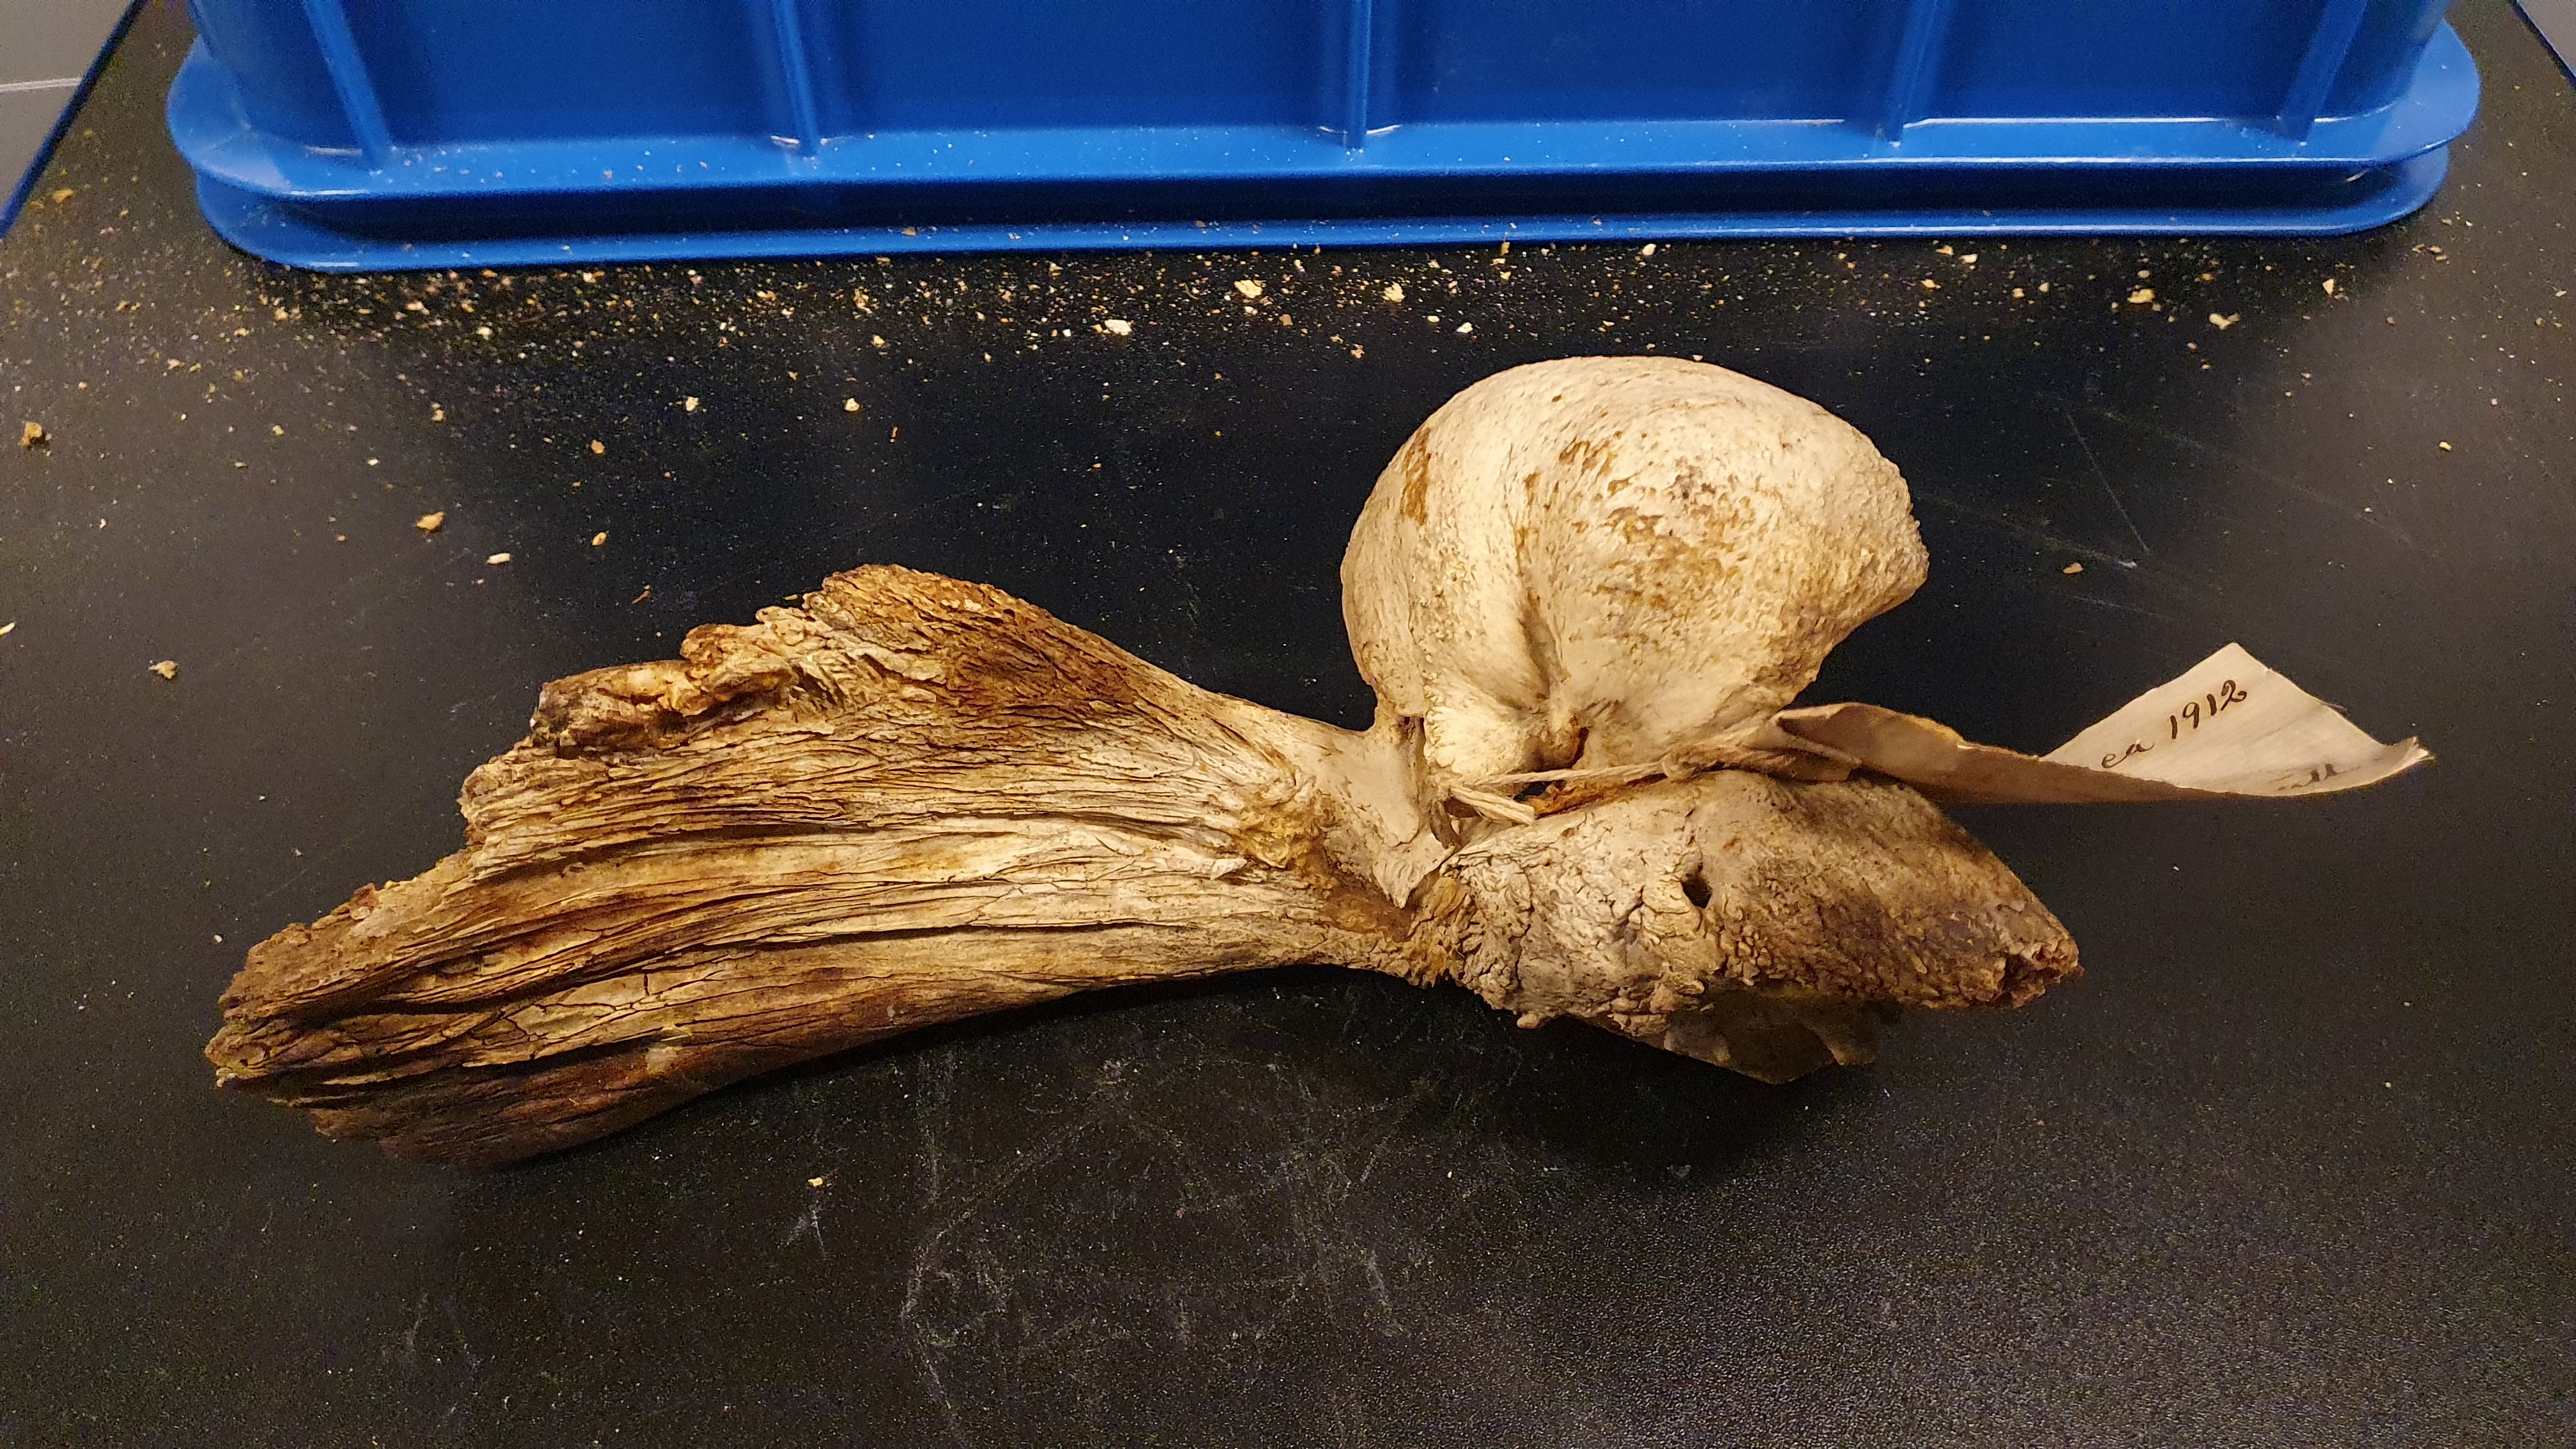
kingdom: Animalia
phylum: Chordata
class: Mammalia
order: Cetacea
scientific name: Cetacea
